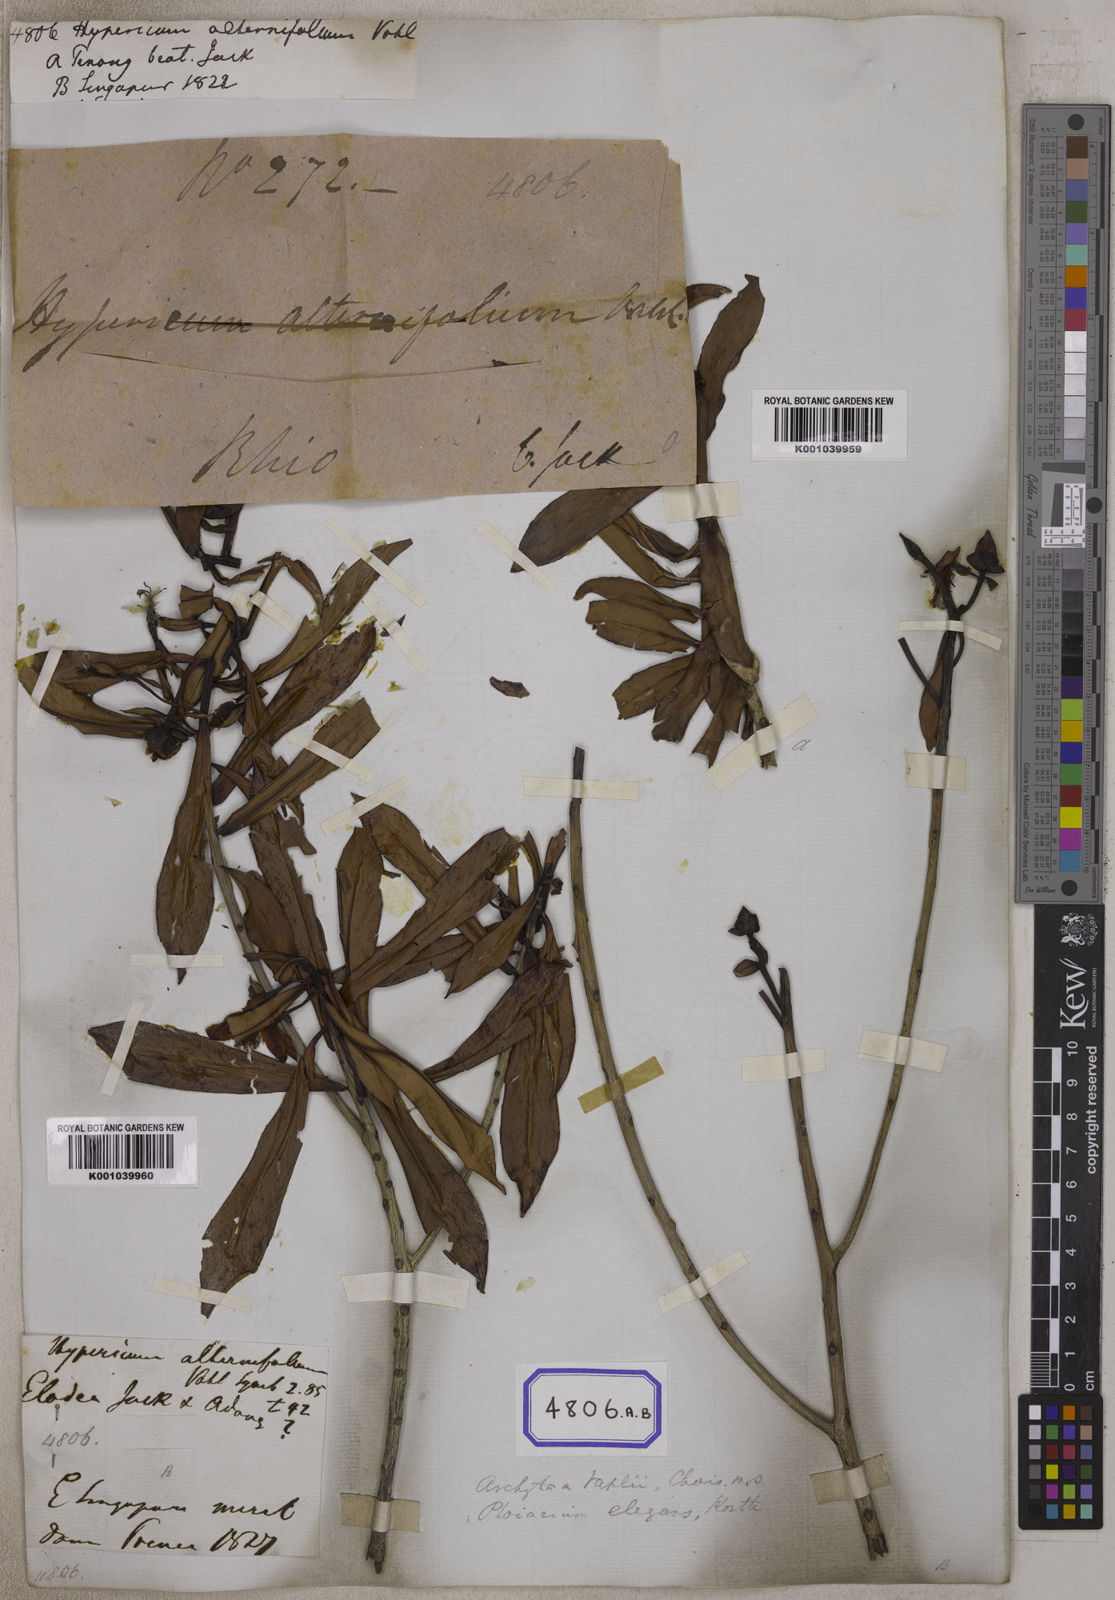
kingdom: Plantae
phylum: Tracheophyta
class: Magnoliopsida
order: Malpighiales
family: Bonnetiaceae
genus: Ploiarium
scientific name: Ploiarium alternifolium
